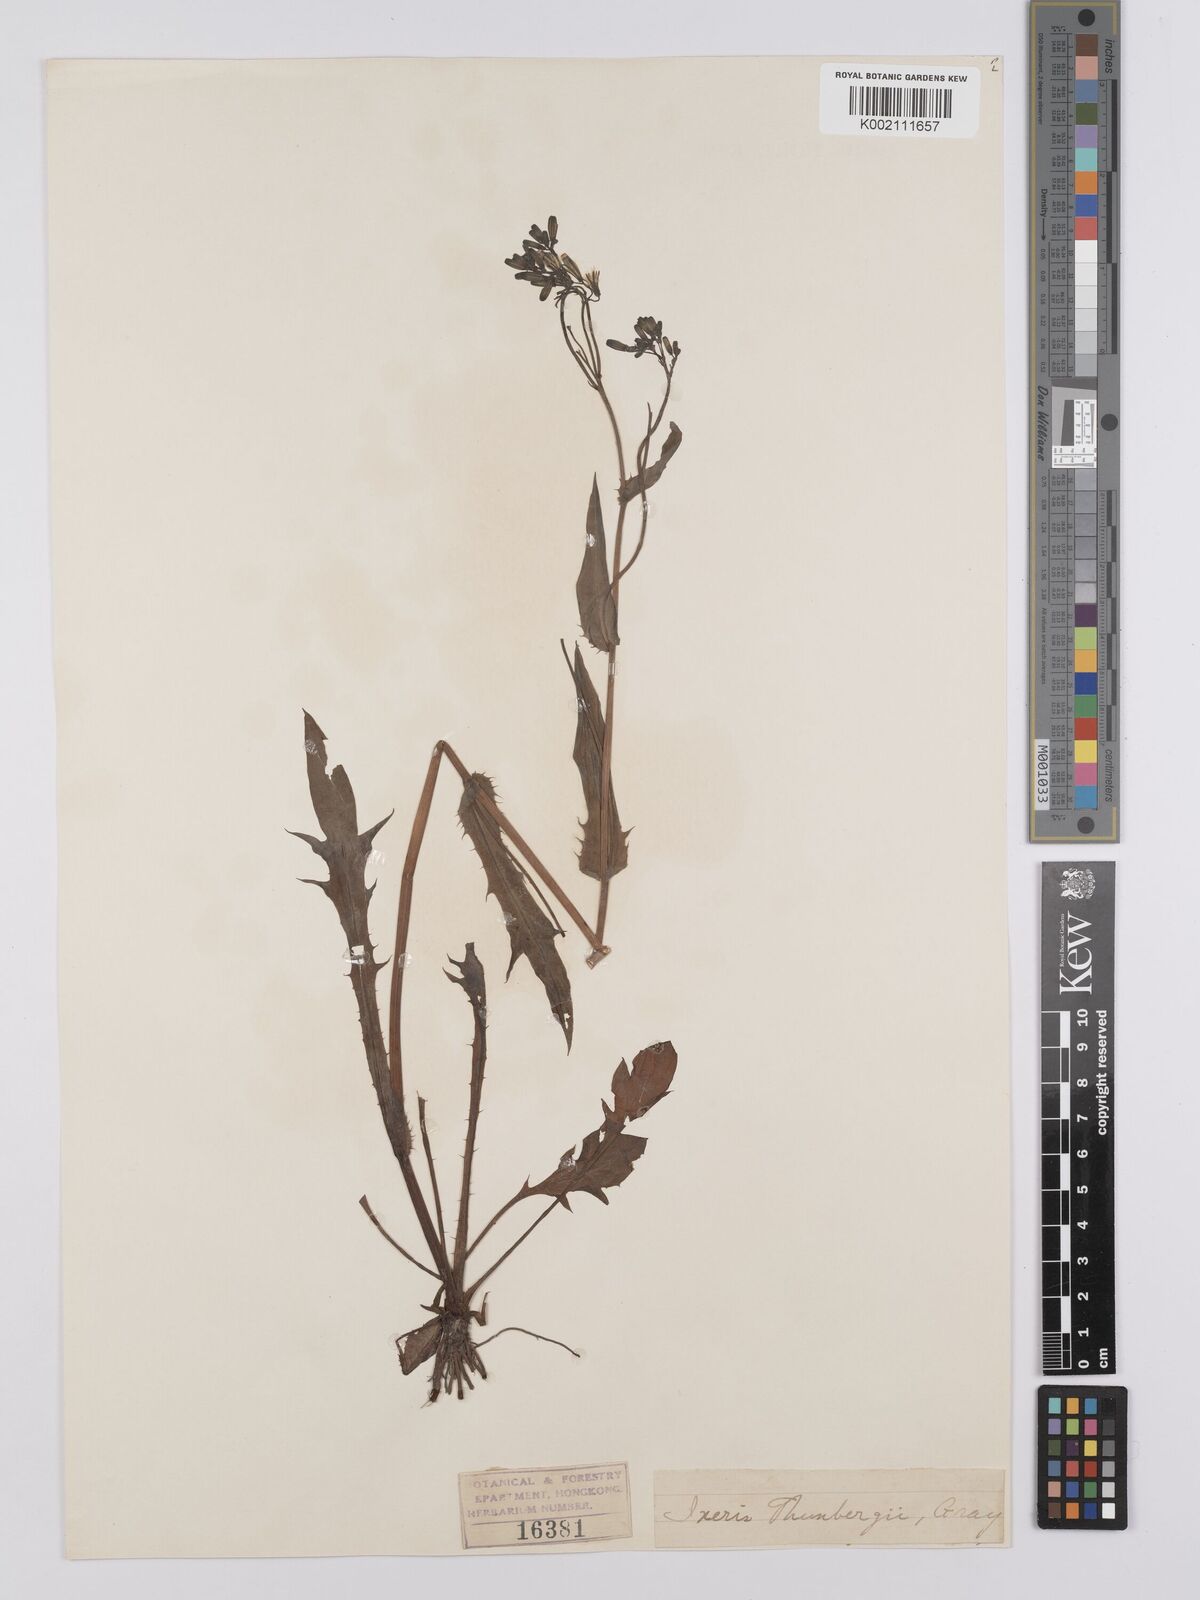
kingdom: Plantae
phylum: Tracheophyta
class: Magnoliopsida
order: Asterales
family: Asteraceae
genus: Ixeridium
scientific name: Ixeridium dentatum
